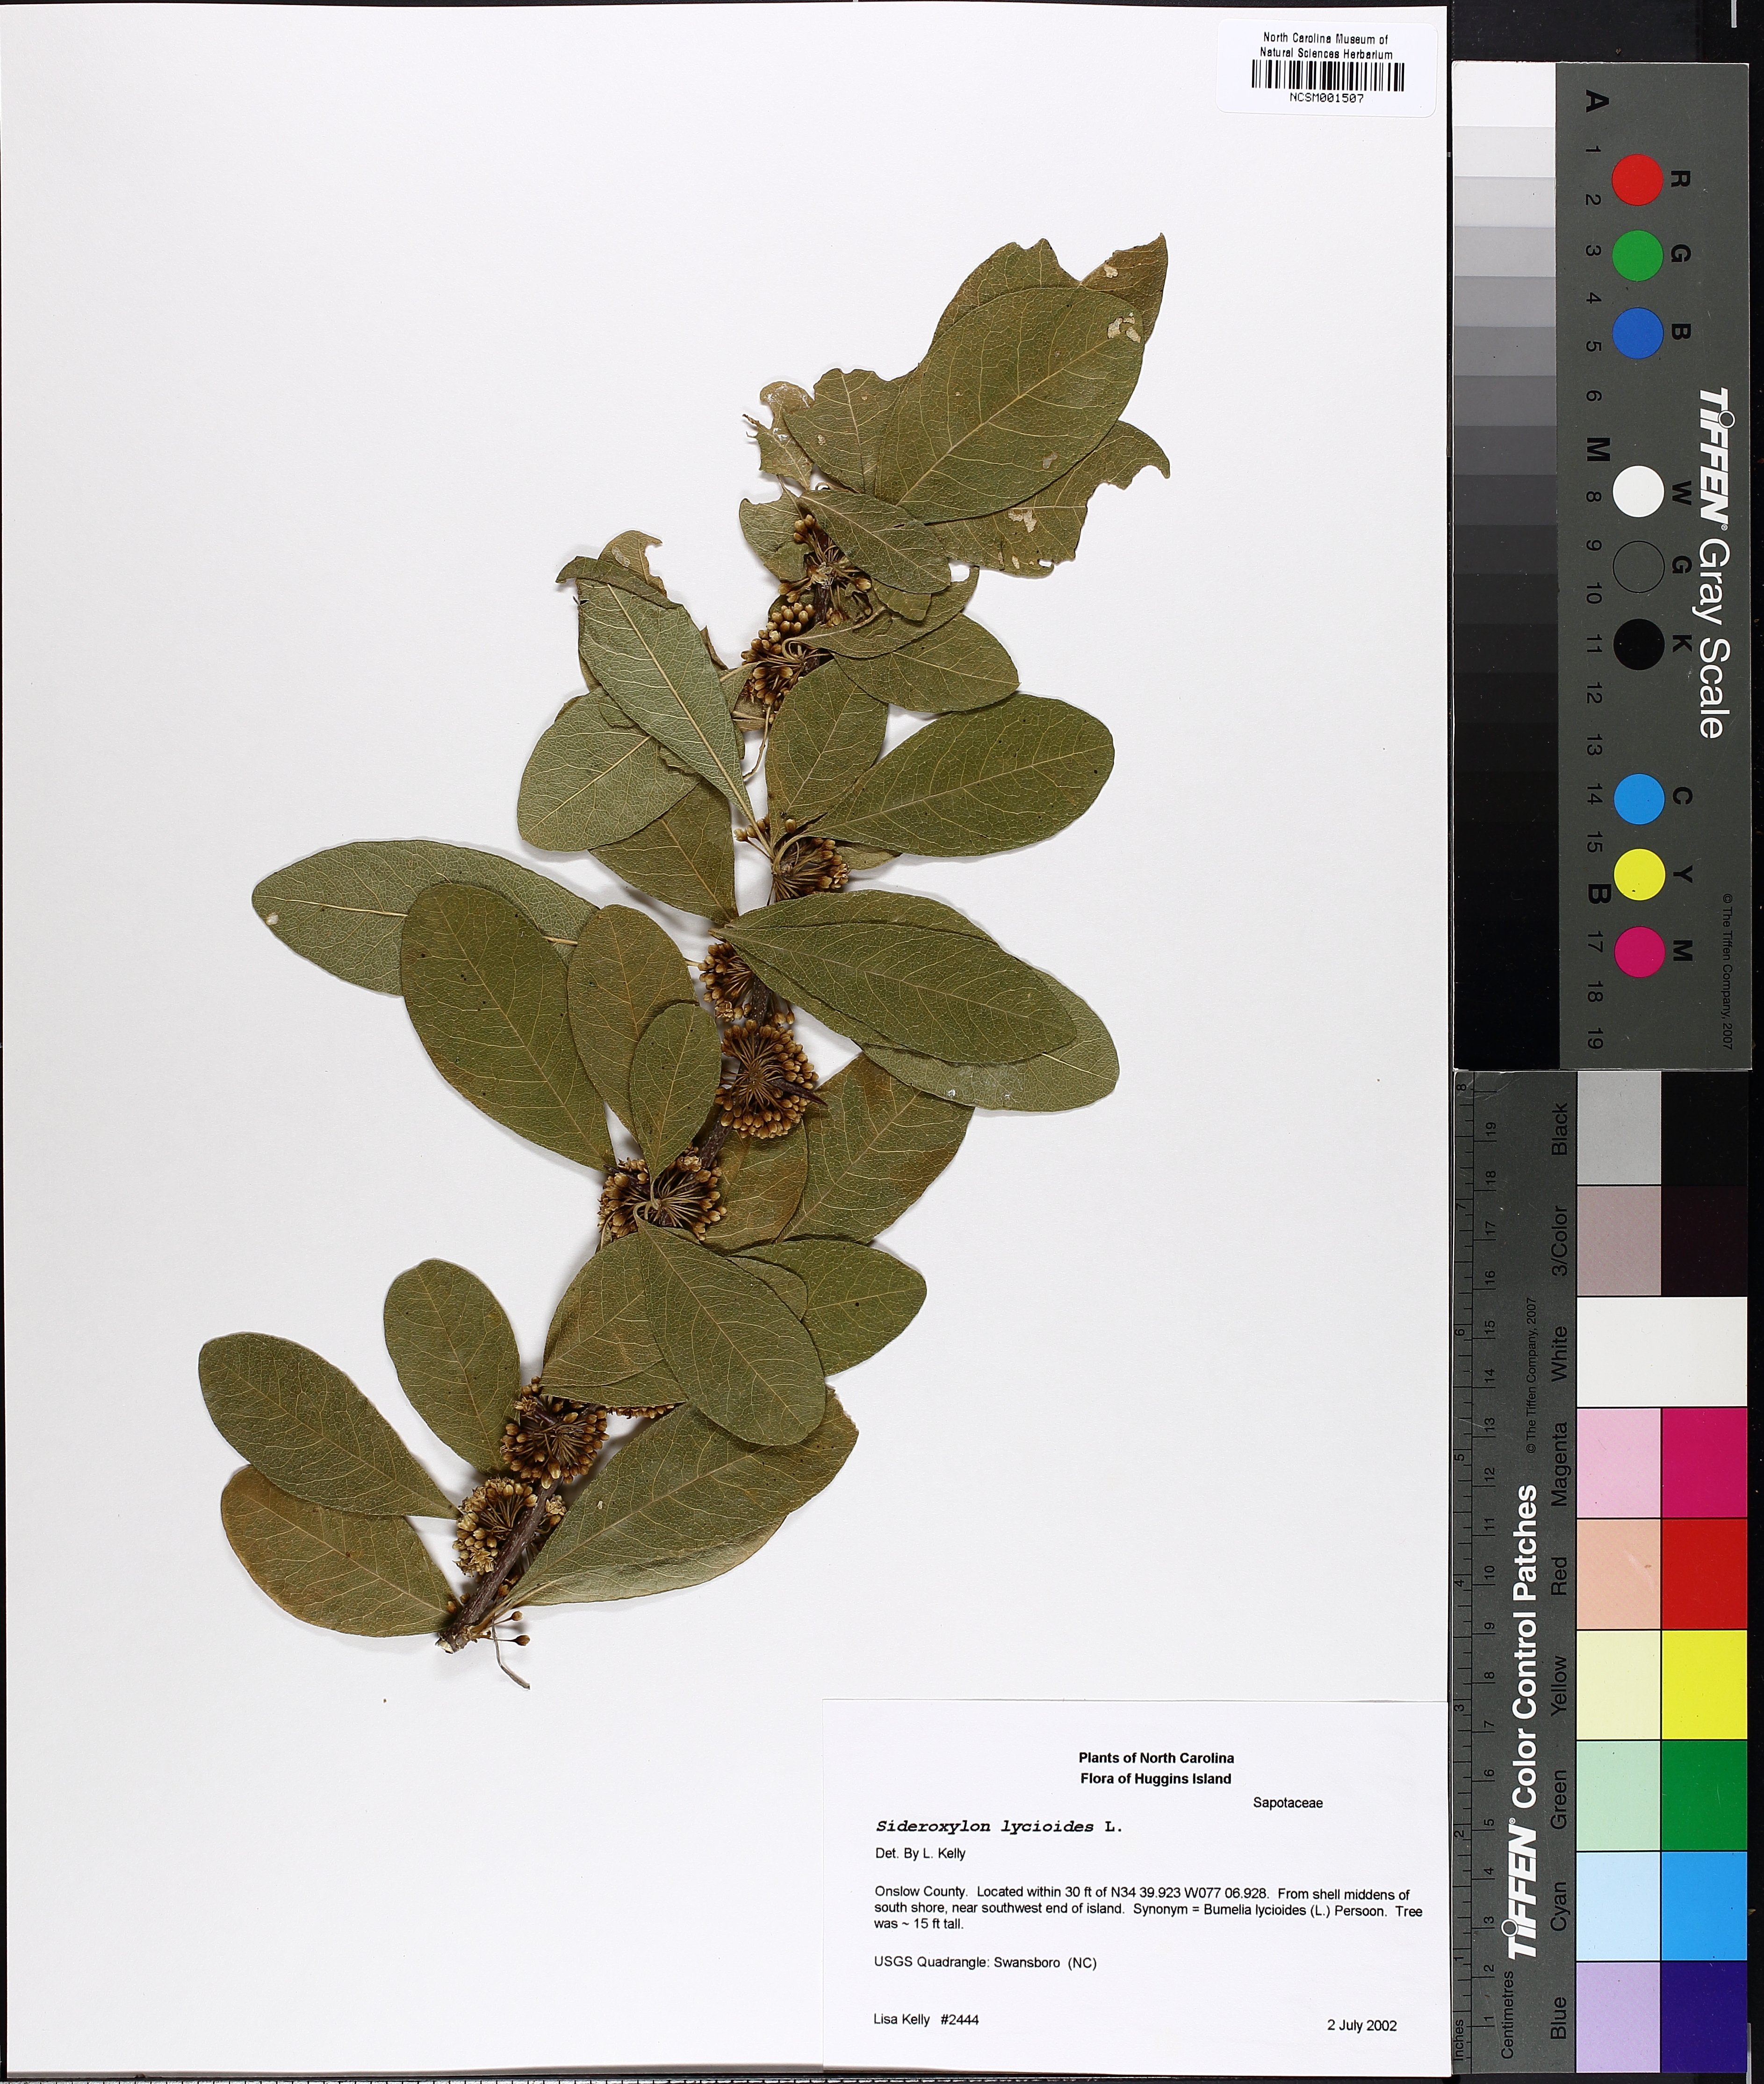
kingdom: Plantae
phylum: Tracheophyta
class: Magnoliopsida
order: Ericales
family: Sapotaceae
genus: Sideroxylon
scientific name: Sideroxylon lycioides
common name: Buckthorn bumelia
